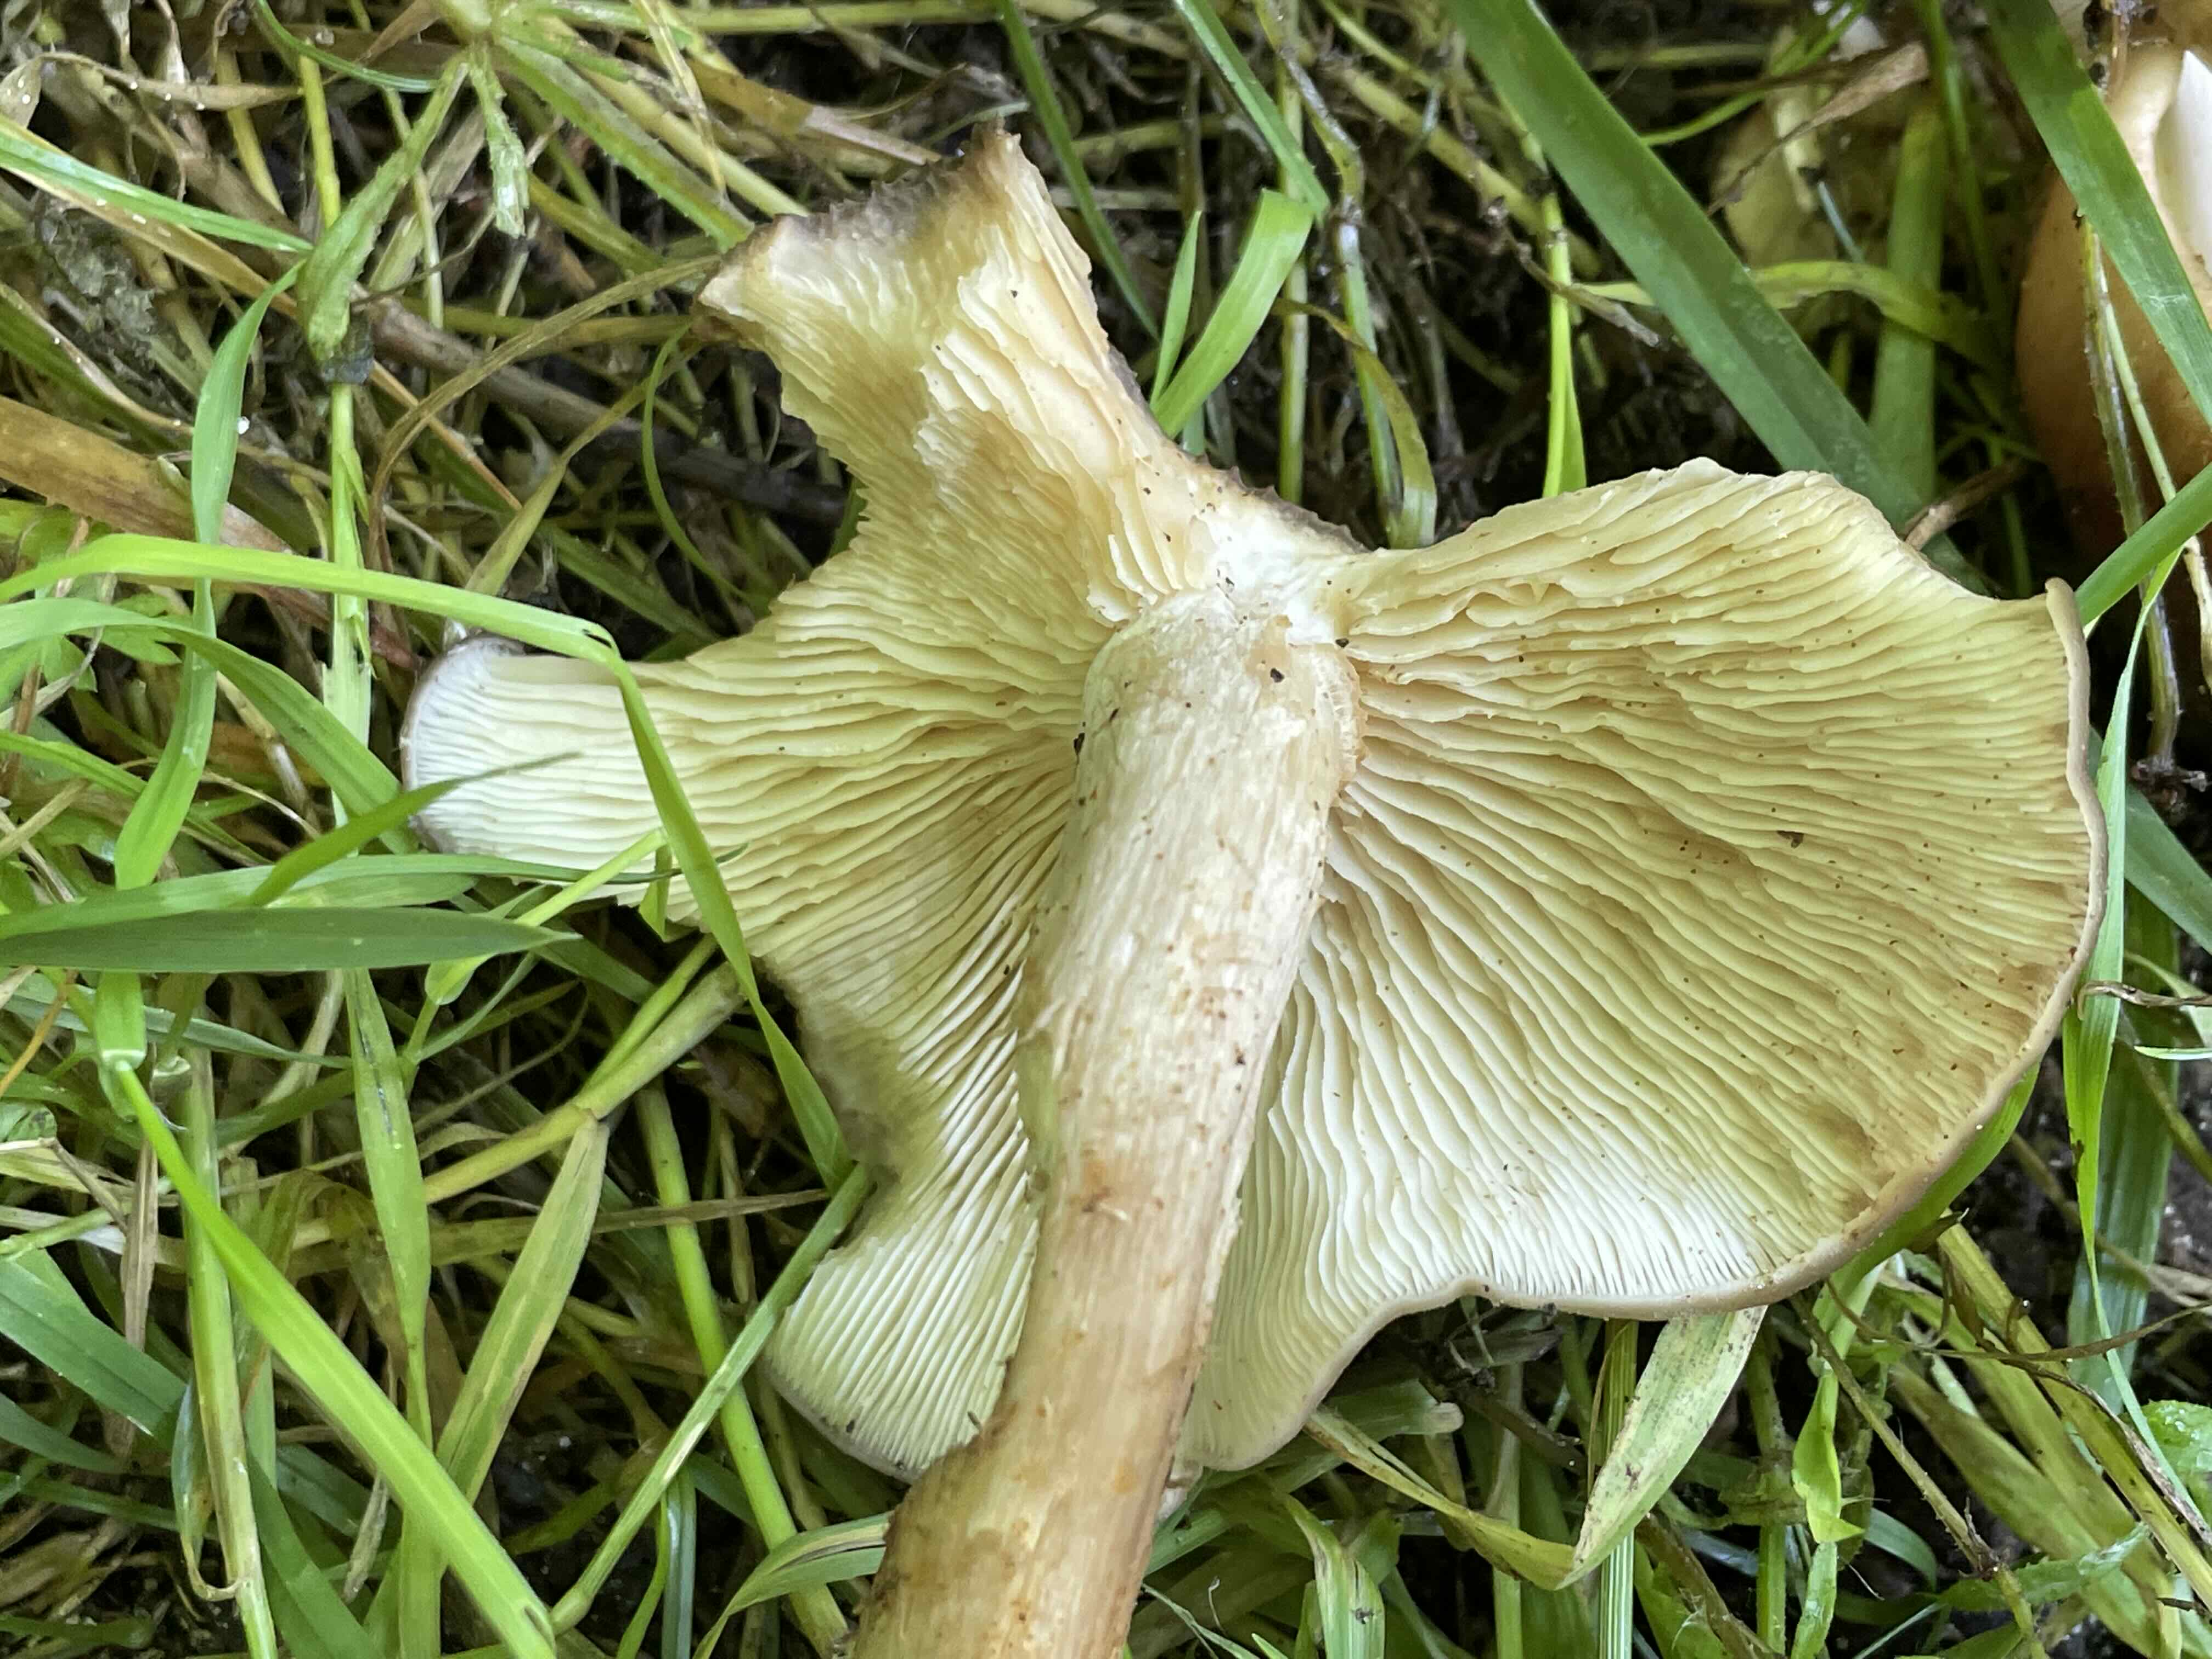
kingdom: Fungi
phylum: Basidiomycota
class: Agaricomycetes
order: Agaricales
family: Lyophyllaceae
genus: Lyophyllum
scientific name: Lyophyllum decastes
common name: røggrå gråblad
